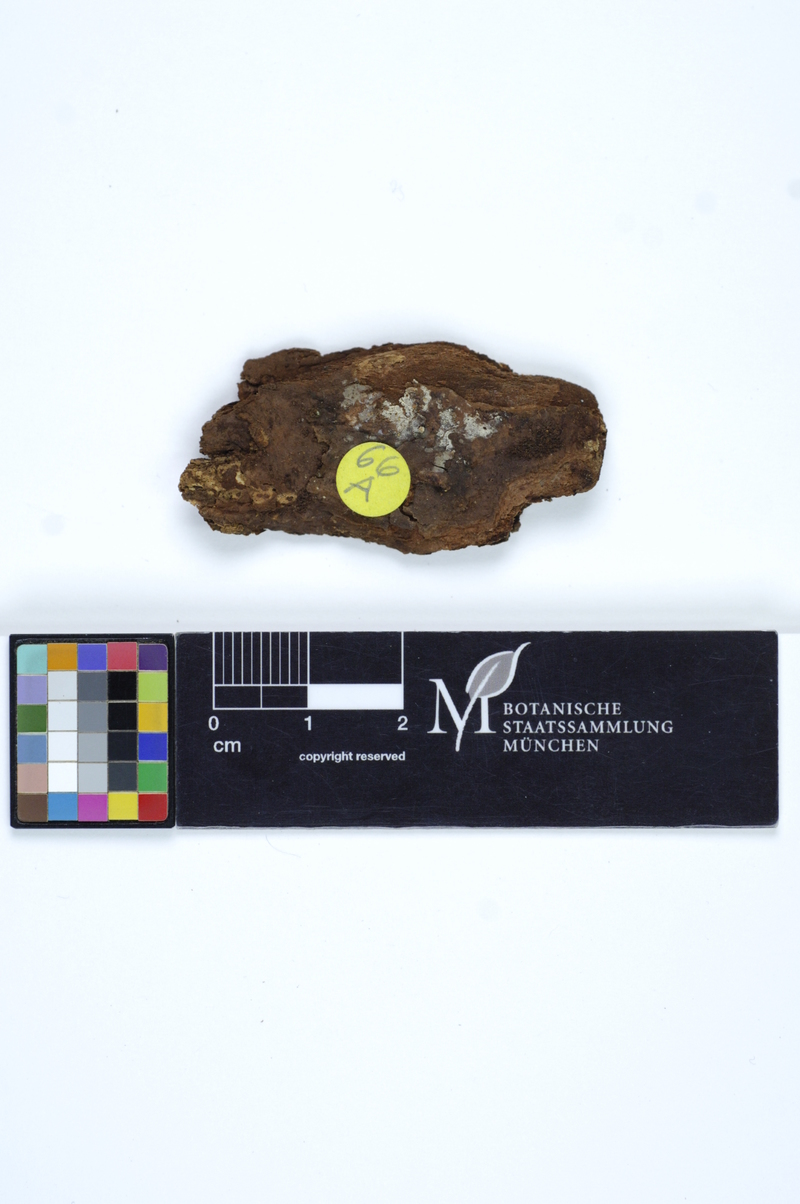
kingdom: Fungi
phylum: Basidiomycota
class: Agaricomycetes
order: Russulales
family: Russulaceae
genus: Boidinia
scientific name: Boidinia furfuracea
